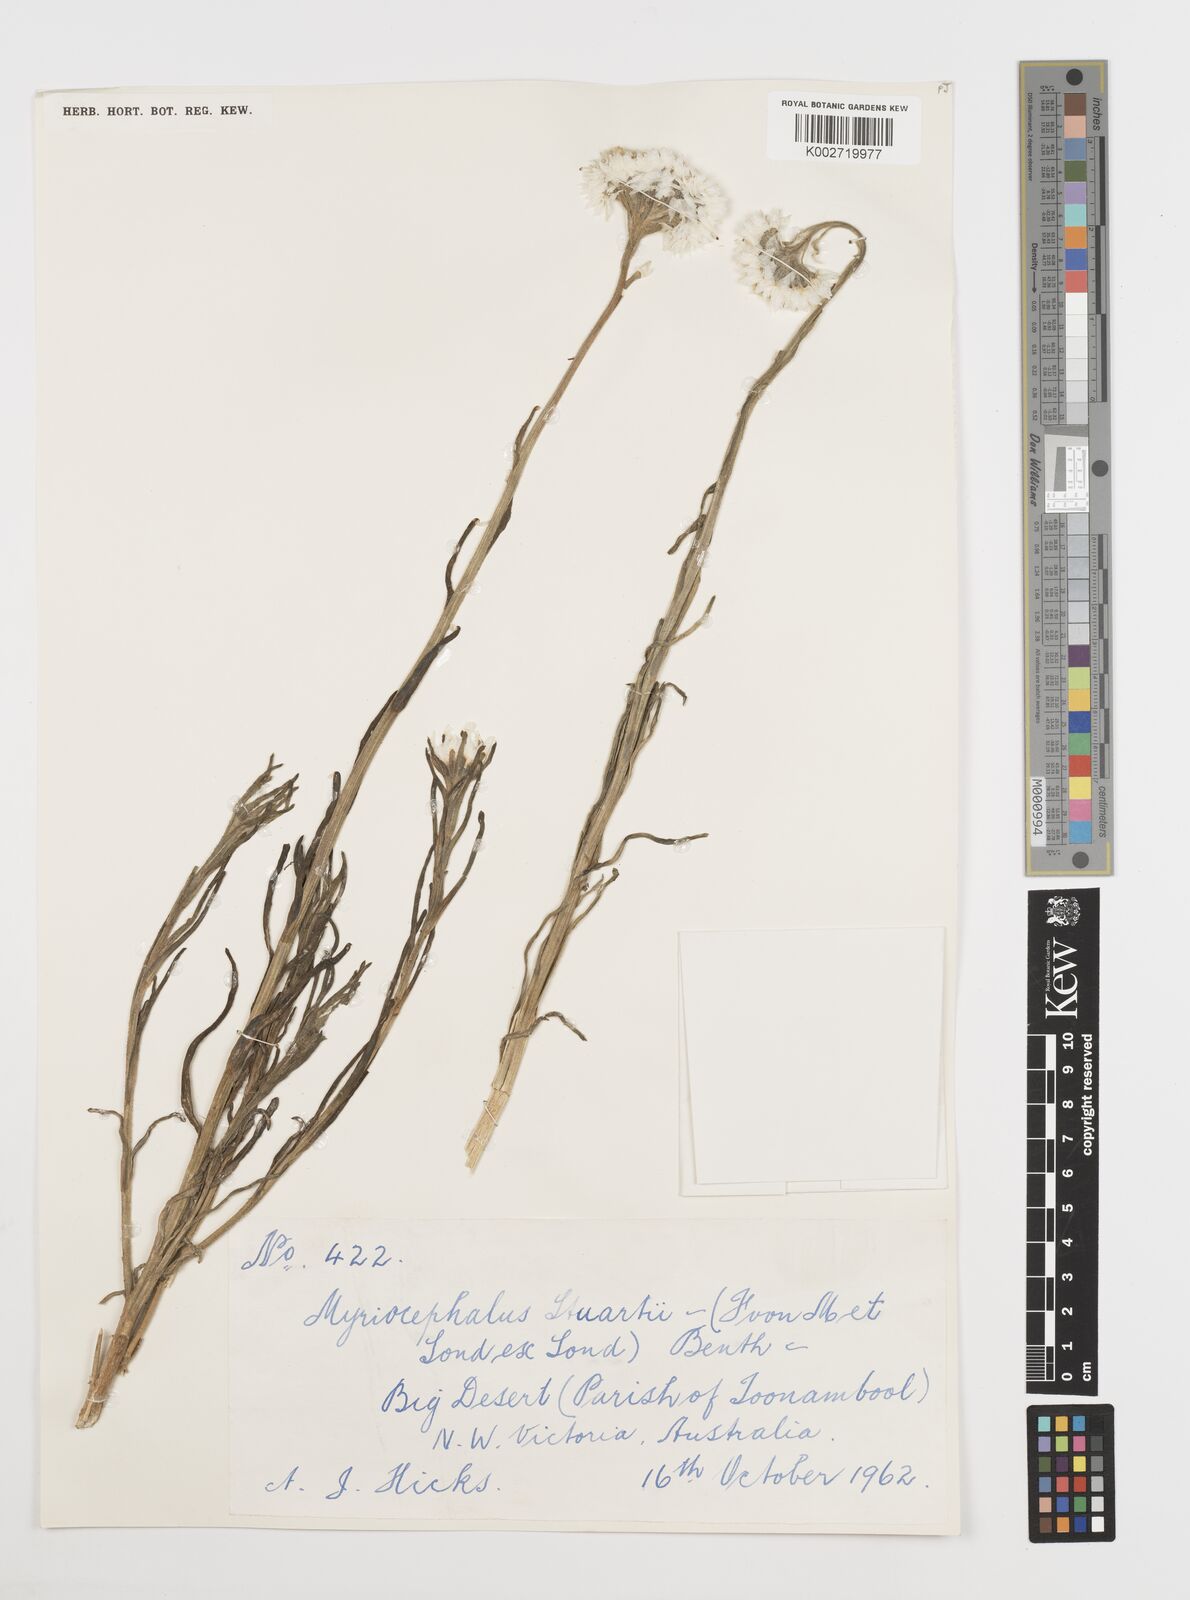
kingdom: Plantae
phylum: Tracheophyta
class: Magnoliopsida
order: Asterales
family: Asteraceae
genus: Polycalymma
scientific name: Polycalymma stuartii
